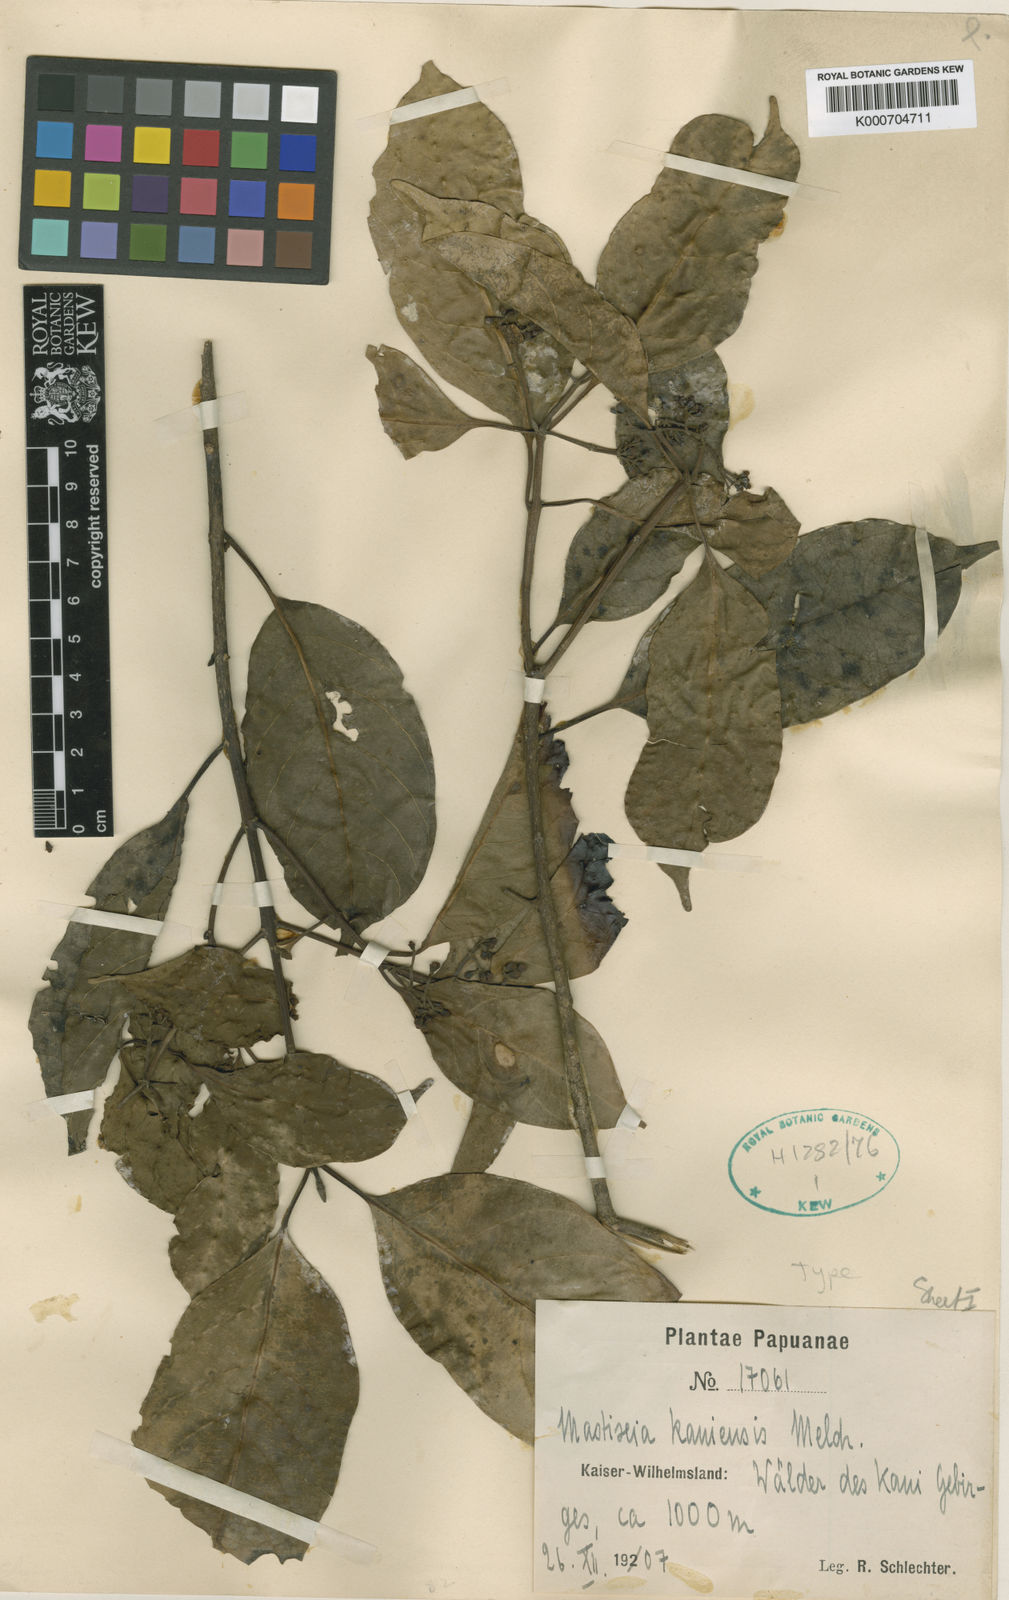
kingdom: Plantae
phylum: Tracheophyta
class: Magnoliopsida
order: Cornales
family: Nyssaceae
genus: Mastixia
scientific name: Mastixia kaniensis
